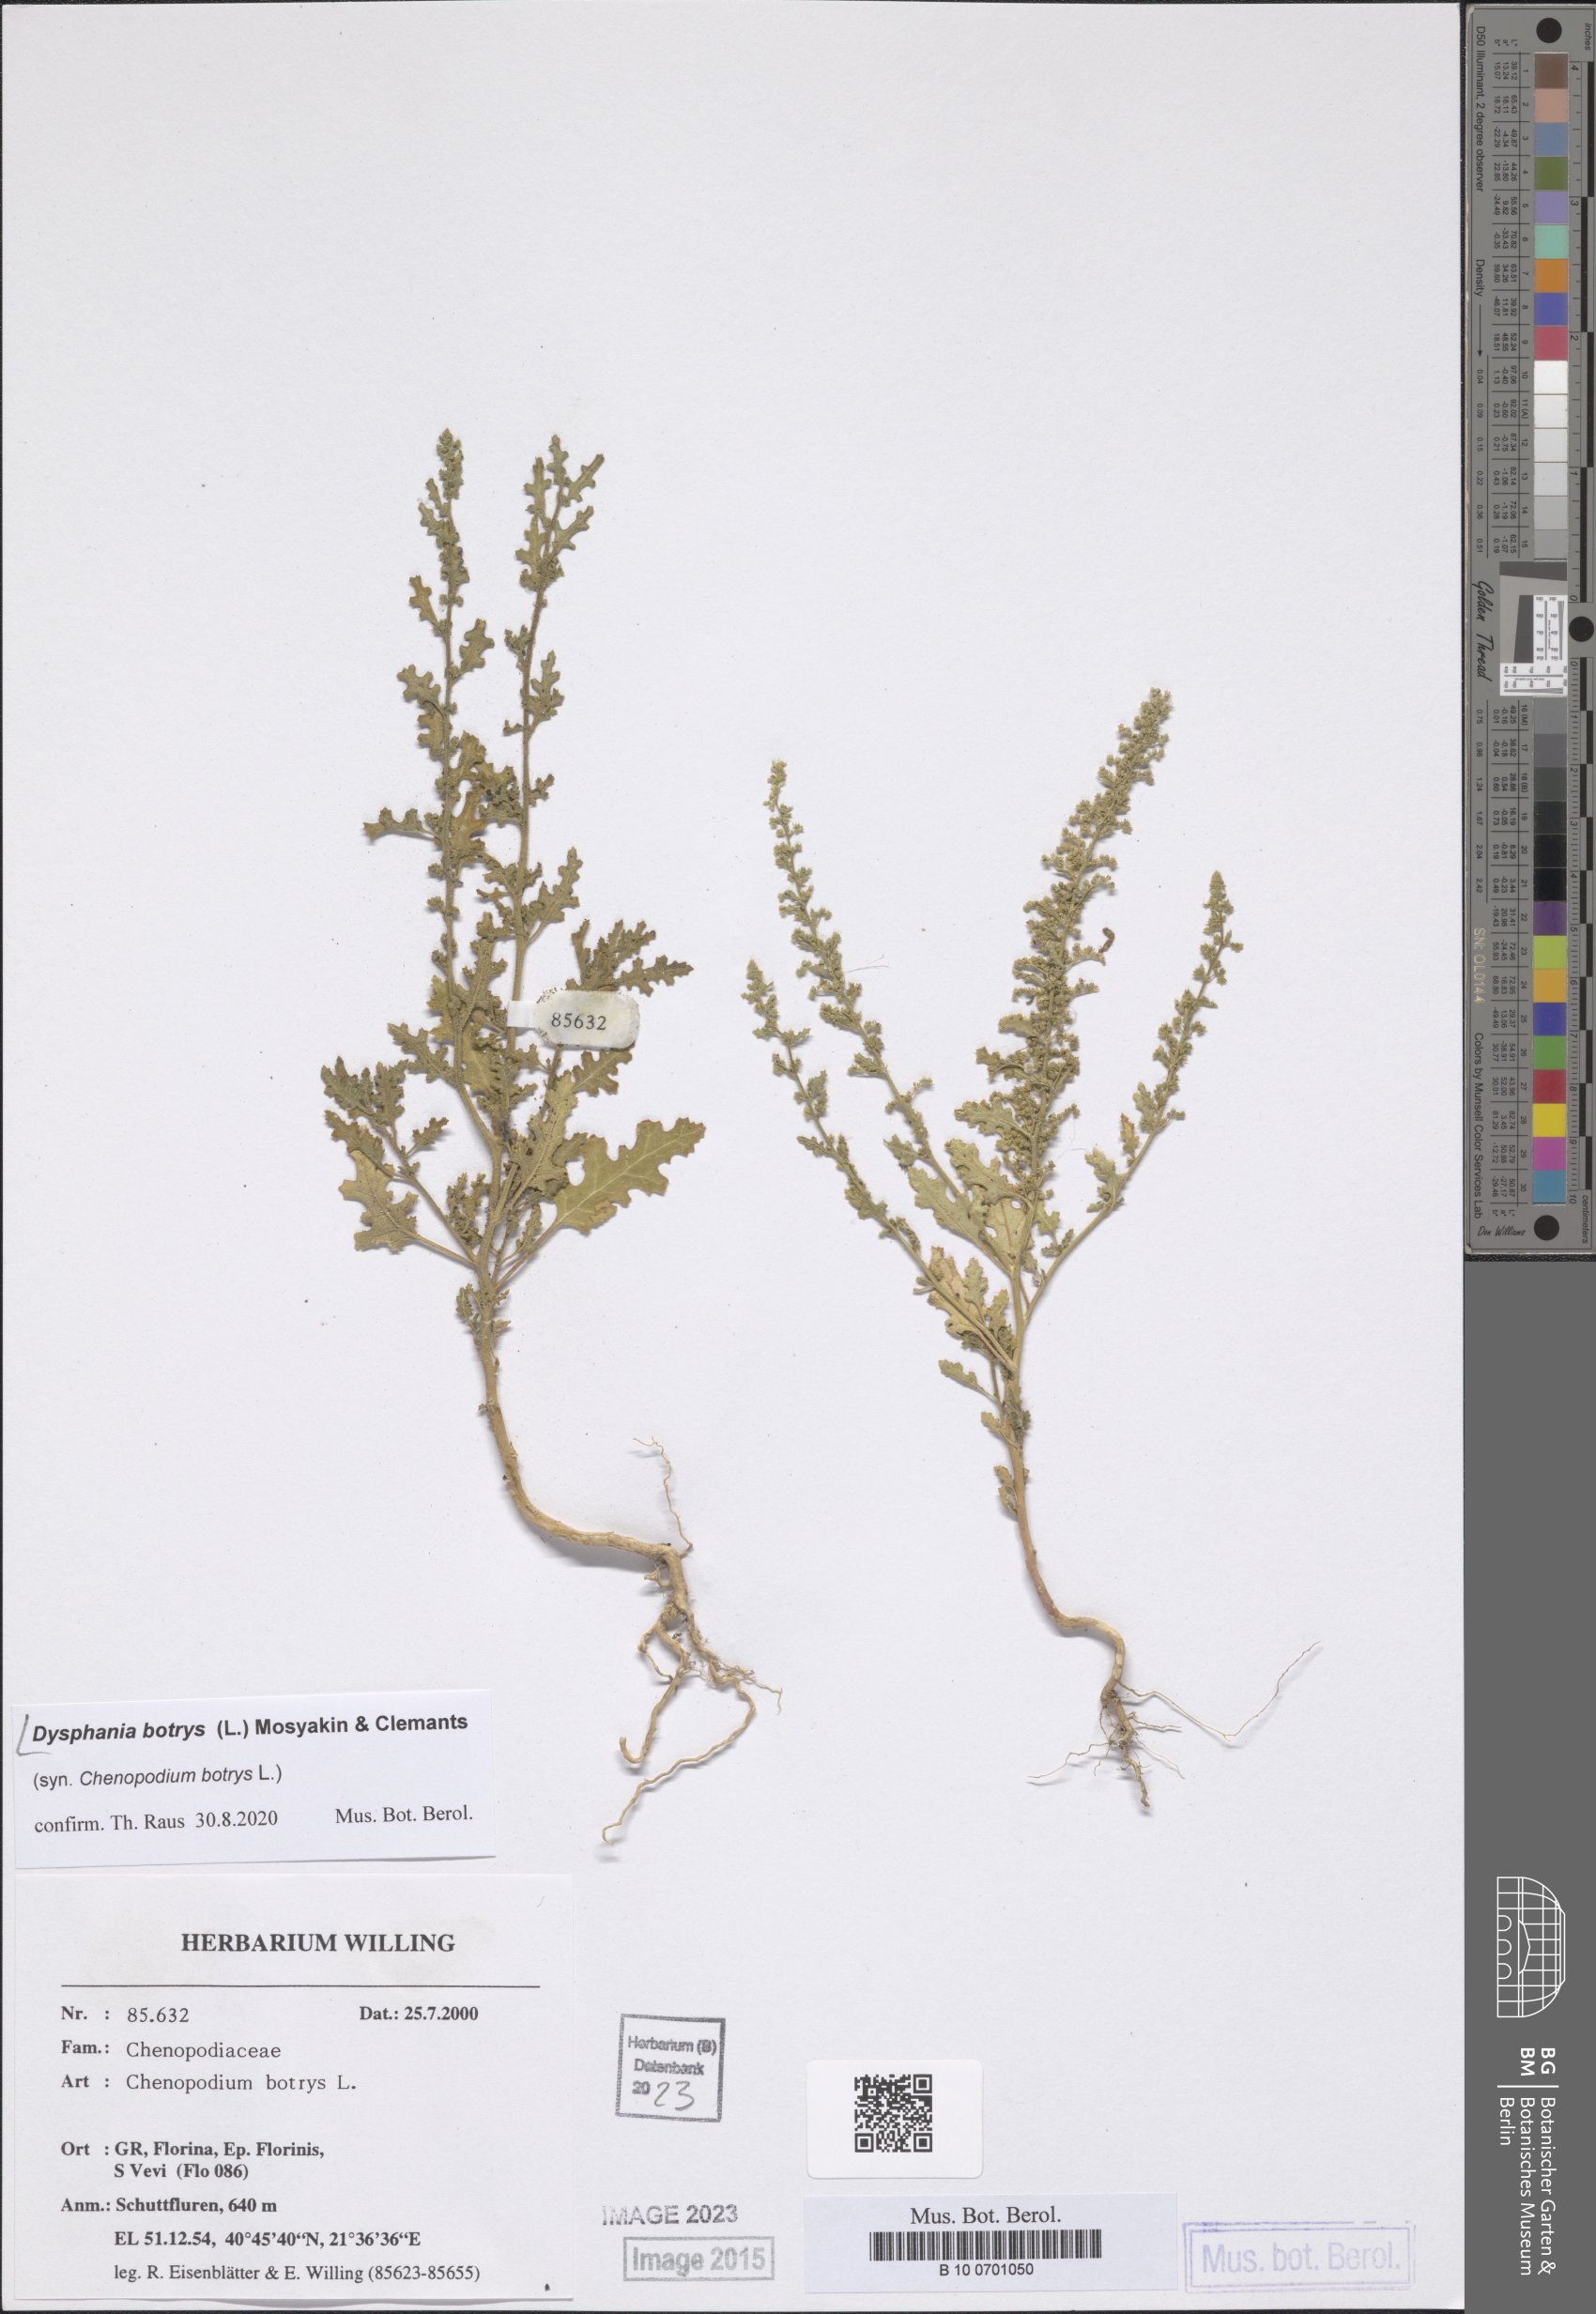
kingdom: Plantae
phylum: Tracheophyta
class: Magnoliopsida
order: Caryophyllales
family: Amaranthaceae
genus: Dysphania
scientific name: Dysphania botrys
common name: Feather-geranium
